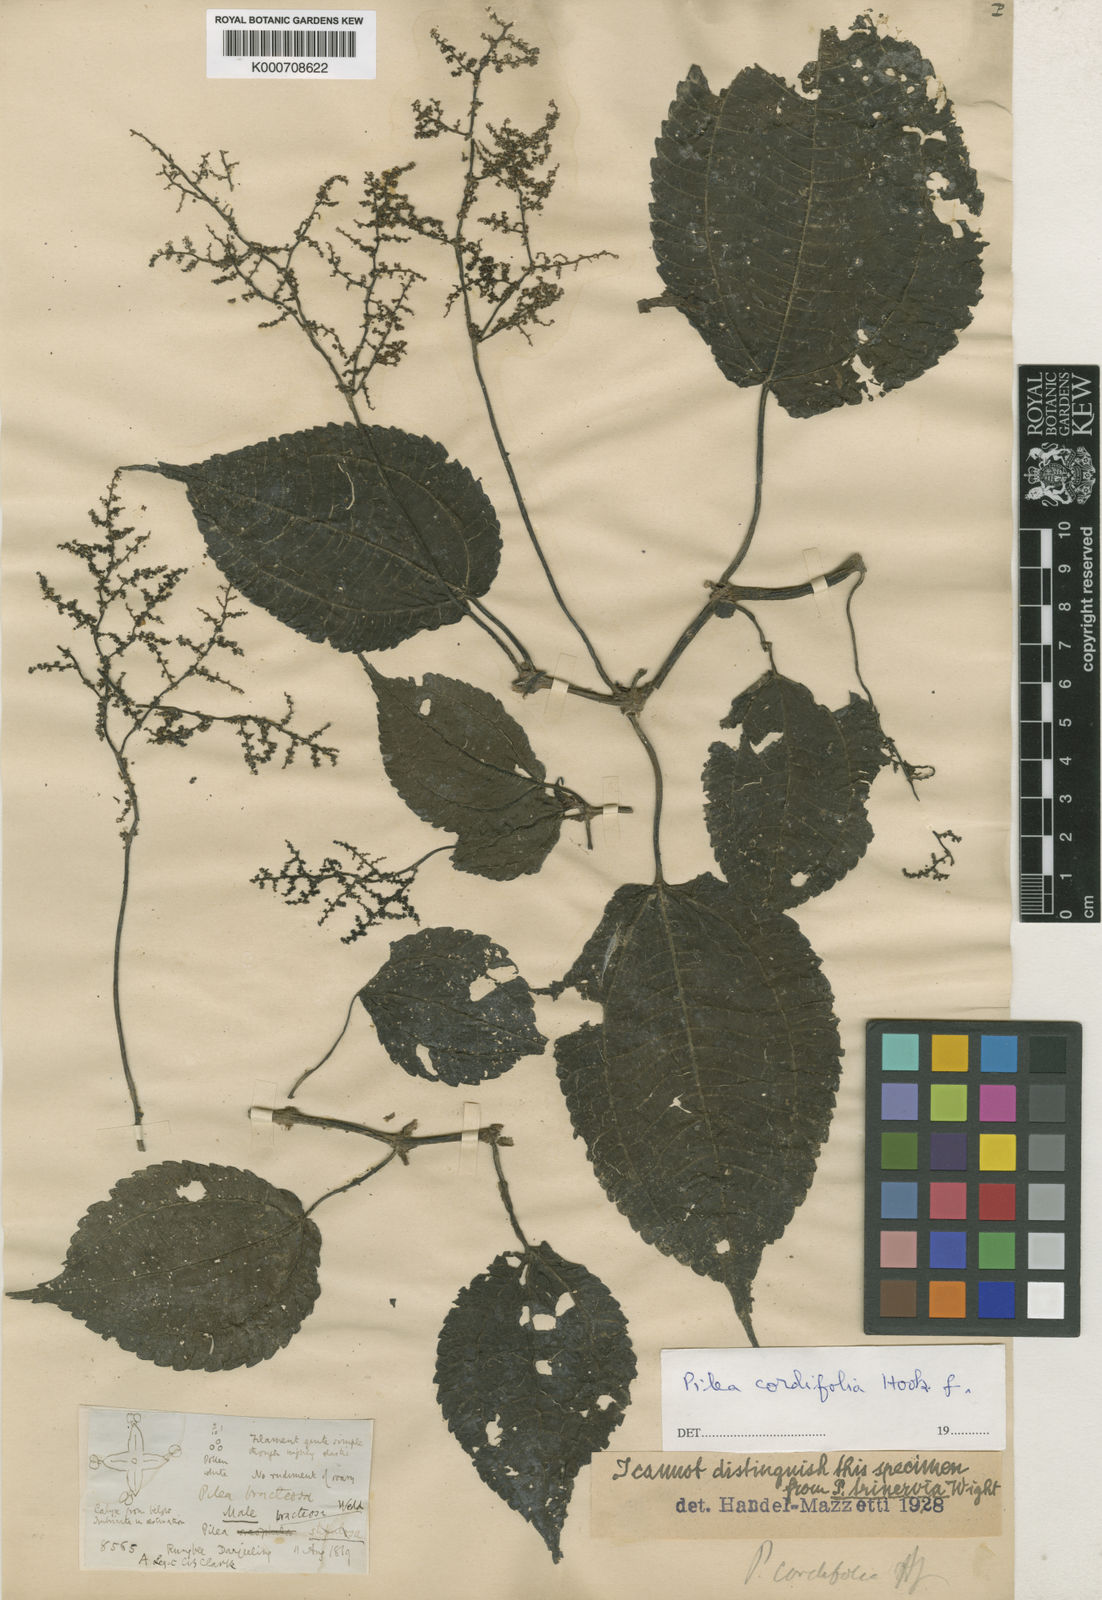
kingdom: Plantae
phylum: Tracheophyta
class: Magnoliopsida
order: Rosales
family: Urticaceae
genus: Pilea
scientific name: Pilea cordifolia
